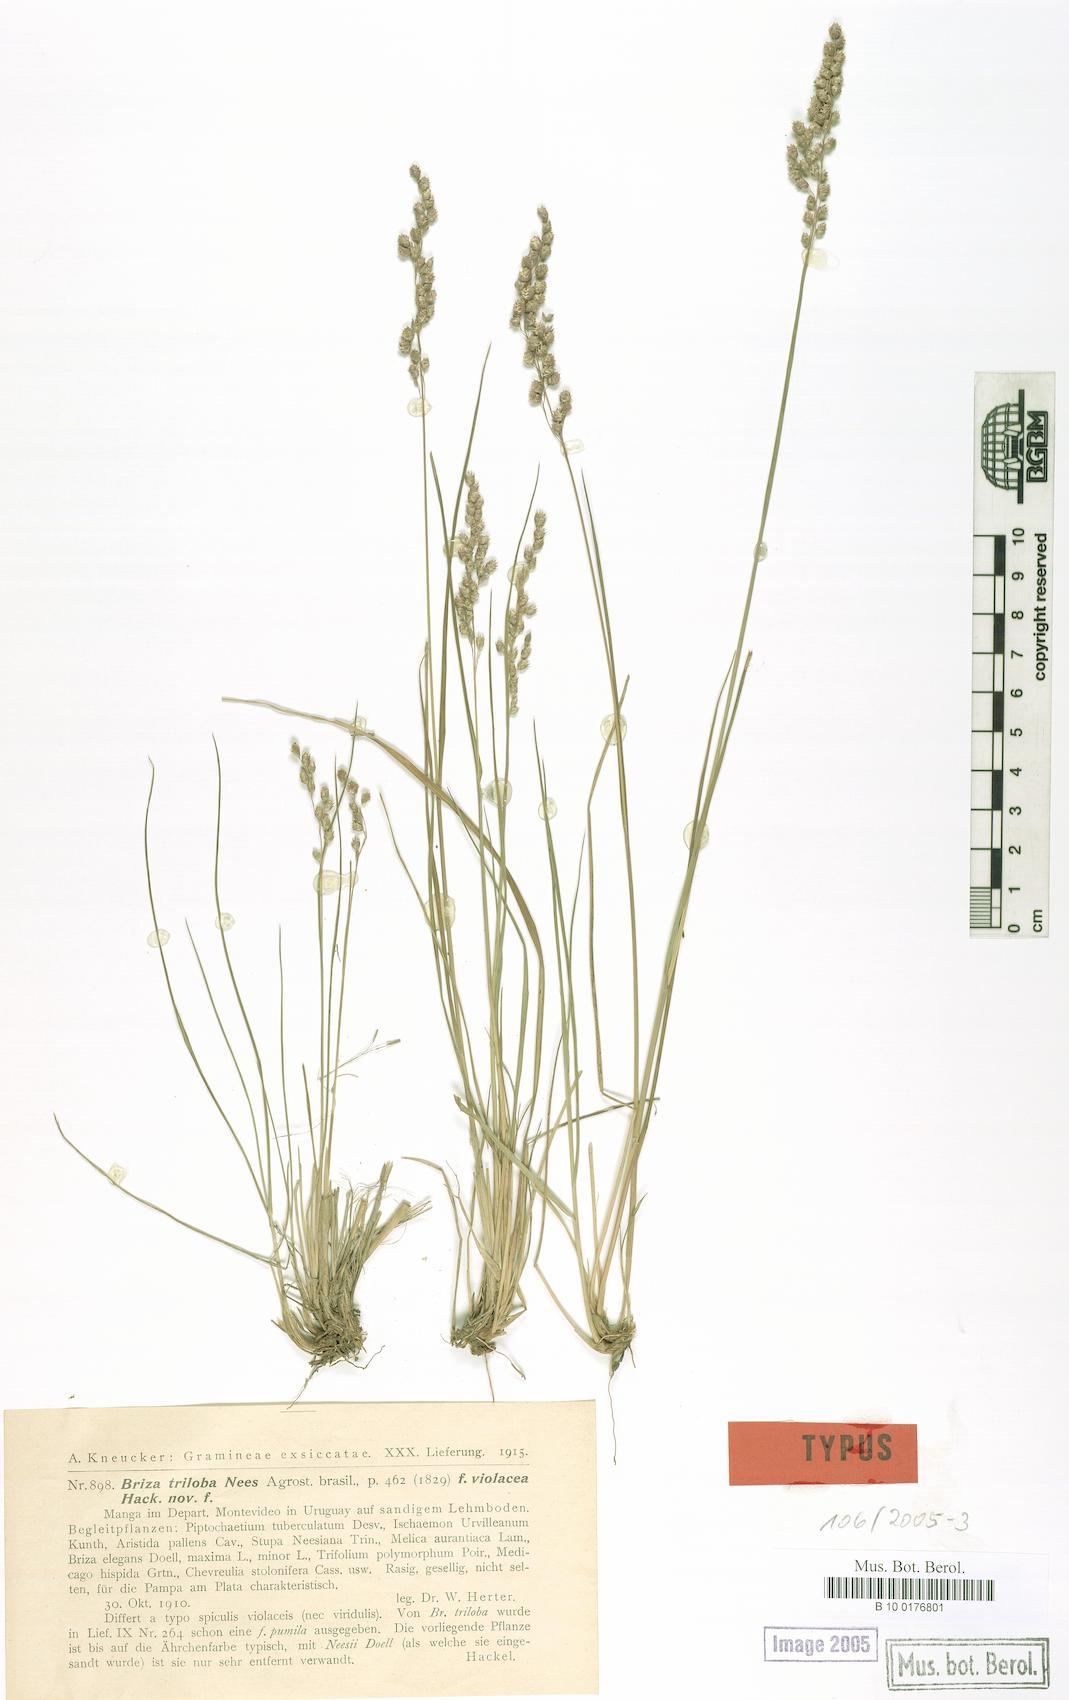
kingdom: Plantae
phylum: Tracheophyta
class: Liliopsida
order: Poales
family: Poaceae
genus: Chascolytrum
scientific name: Chascolytrum subaristatum
